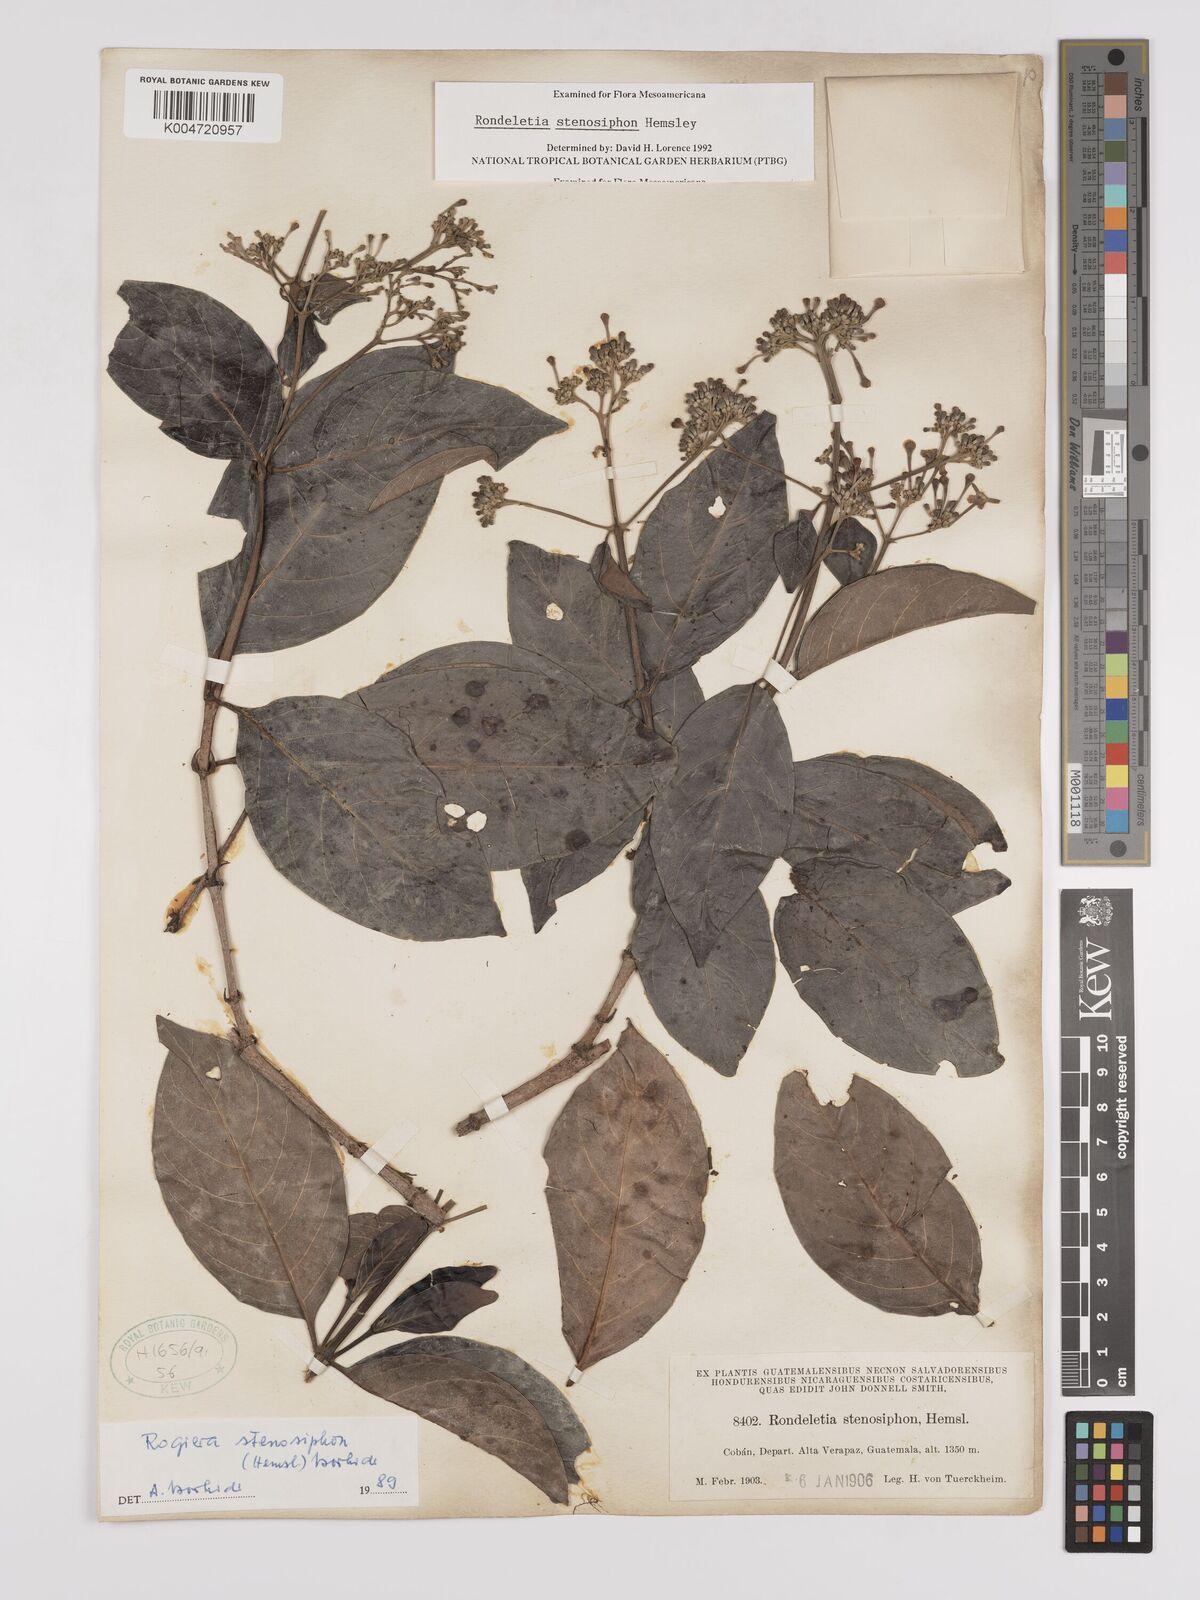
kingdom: Plantae
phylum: Tracheophyta
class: Magnoliopsida
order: Gentianales
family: Rubiaceae
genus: Rogiera
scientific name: Rogiera stenosiphon
